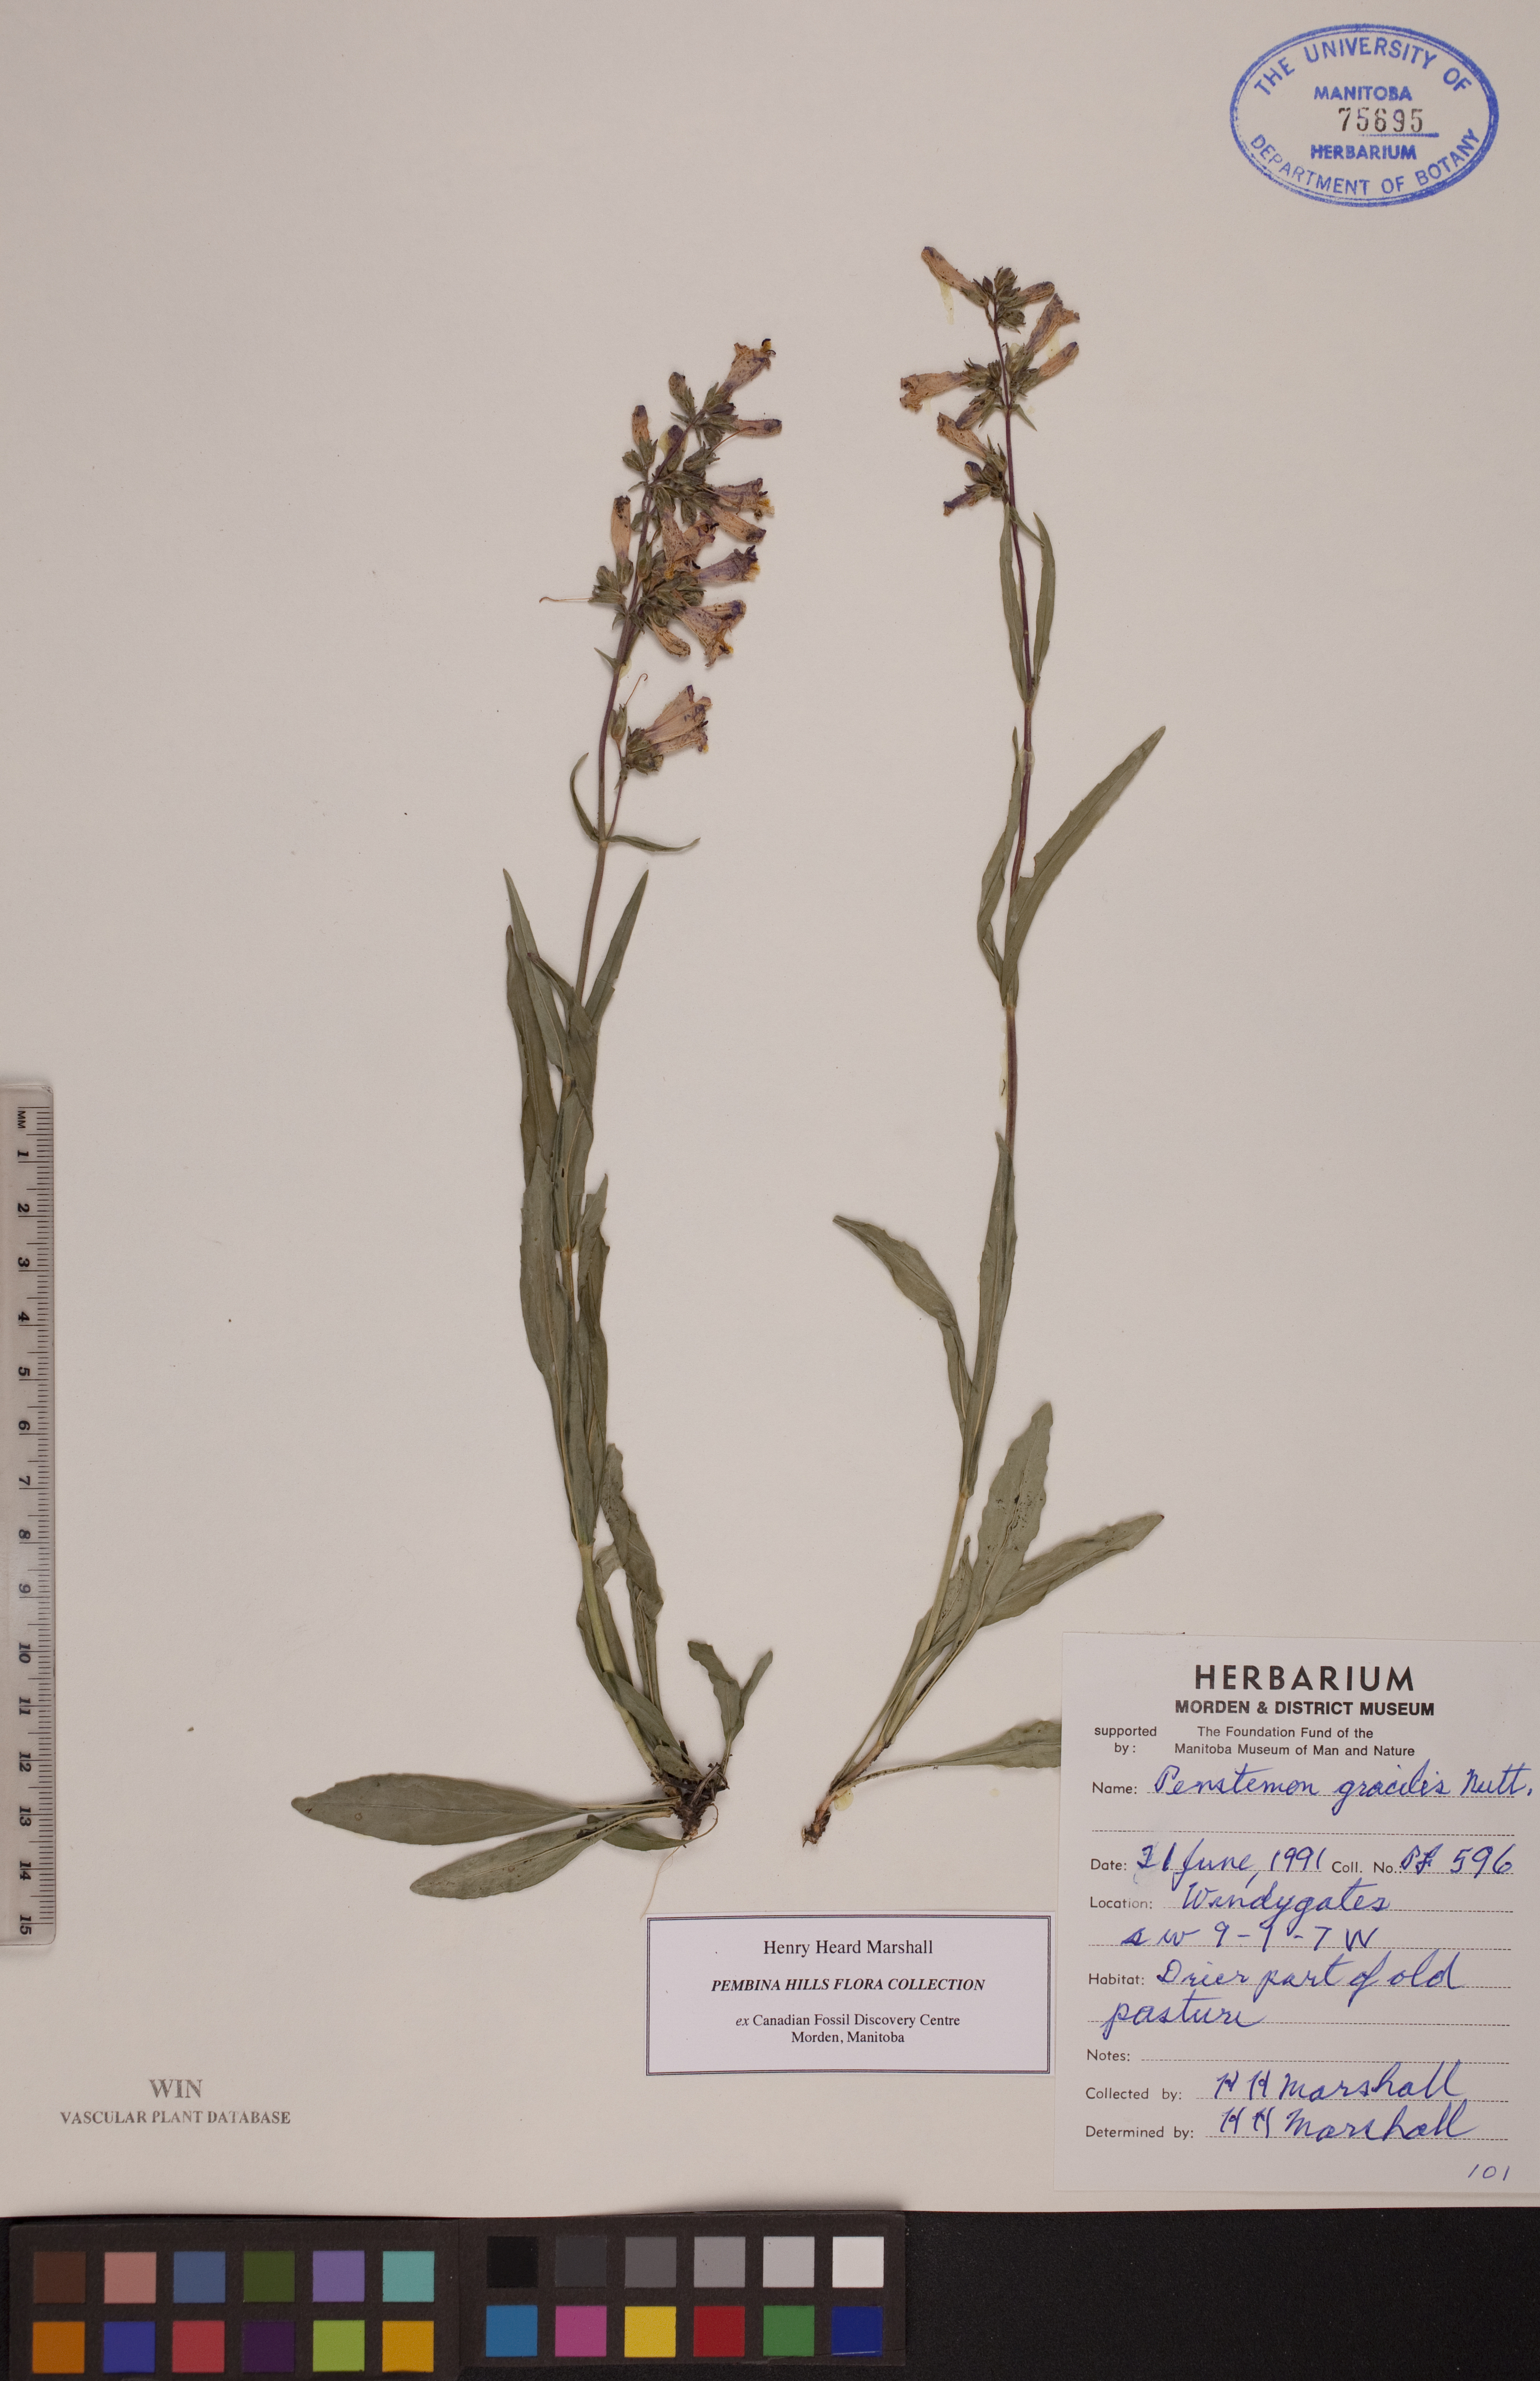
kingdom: Plantae
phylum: Tracheophyta
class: Magnoliopsida
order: Lamiales
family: Plantaginaceae
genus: Penstemon
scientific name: Penstemon gracilis
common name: Slender beardtongue
